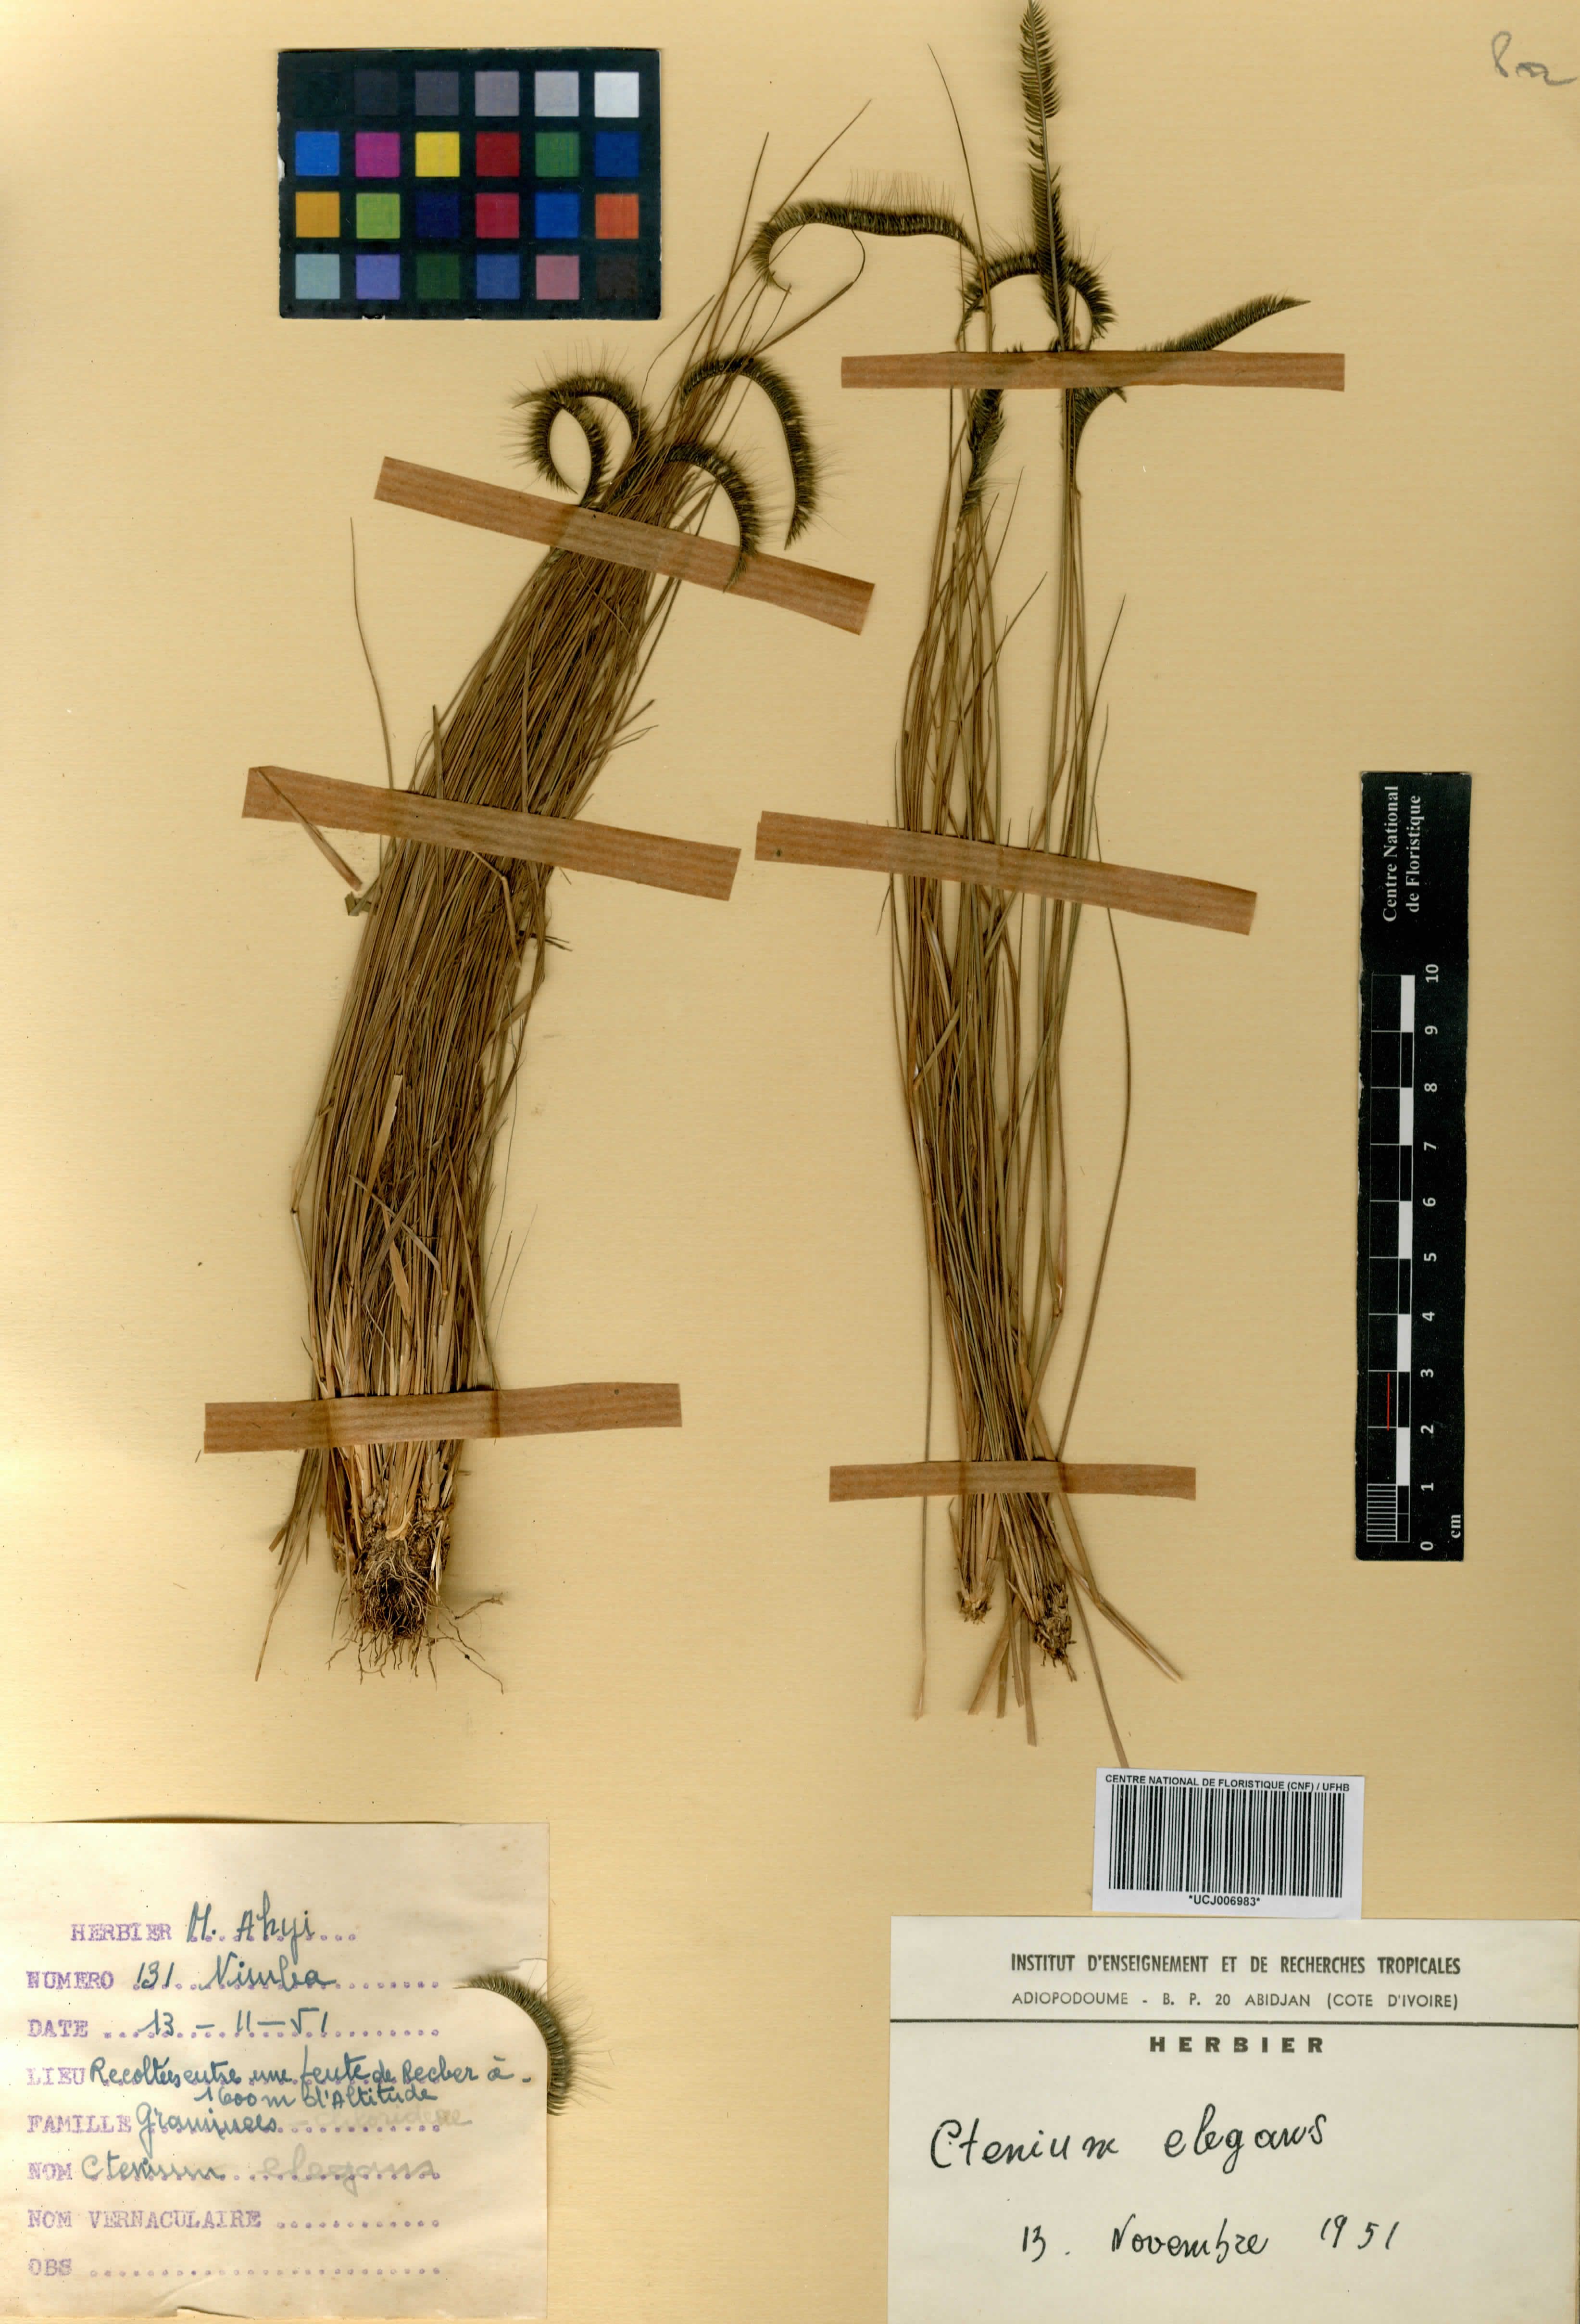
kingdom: Plantae
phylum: Tracheophyta
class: Liliopsida
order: Poales
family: Poaceae
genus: Ctenium
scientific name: Ctenium elegans
